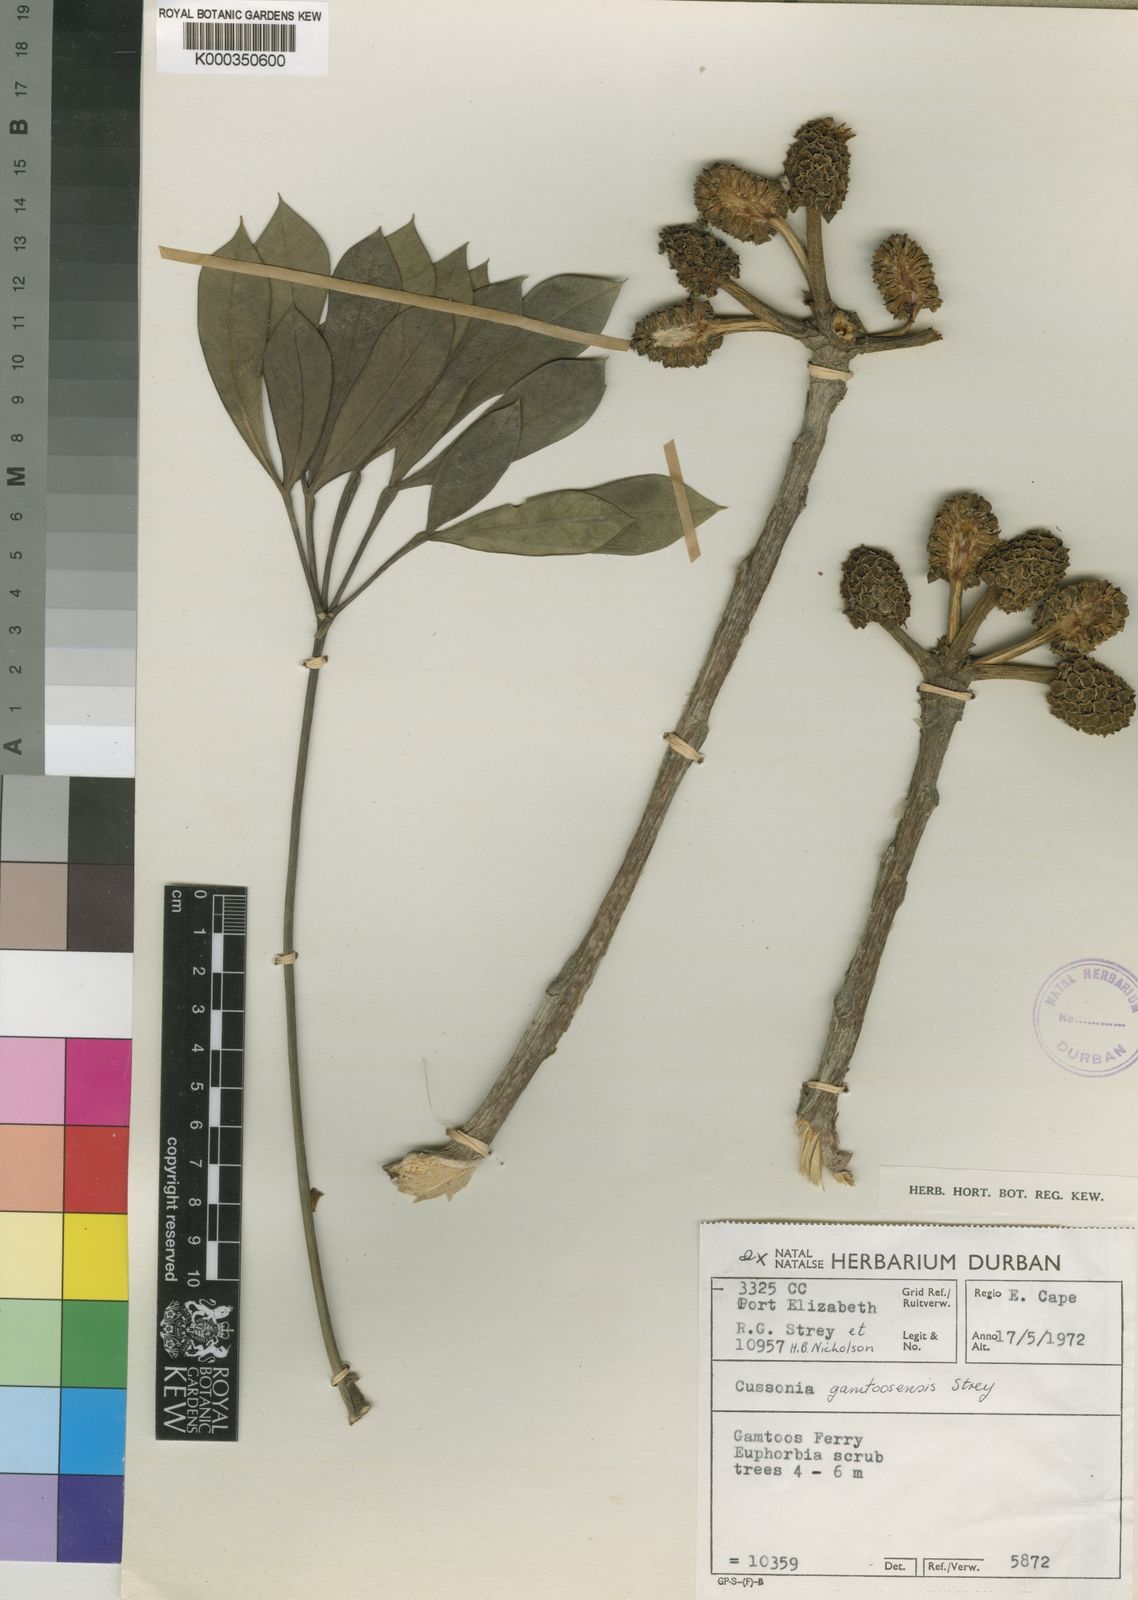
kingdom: Plantae
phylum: Tracheophyta
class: Magnoliopsida
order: Apiales
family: Araliaceae
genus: Cussonia
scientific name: Cussonia gamtoosensis
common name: Gamtoos cabbage tree
